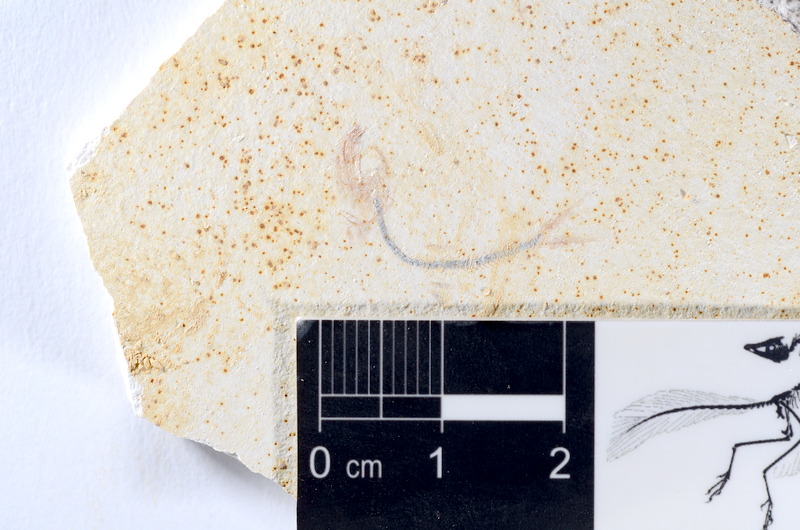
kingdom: Animalia
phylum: Chordata
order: Salmoniformes
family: Orthogonikleithridae
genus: Orthogonikleithrus
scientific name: Orthogonikleithrus hoelli
